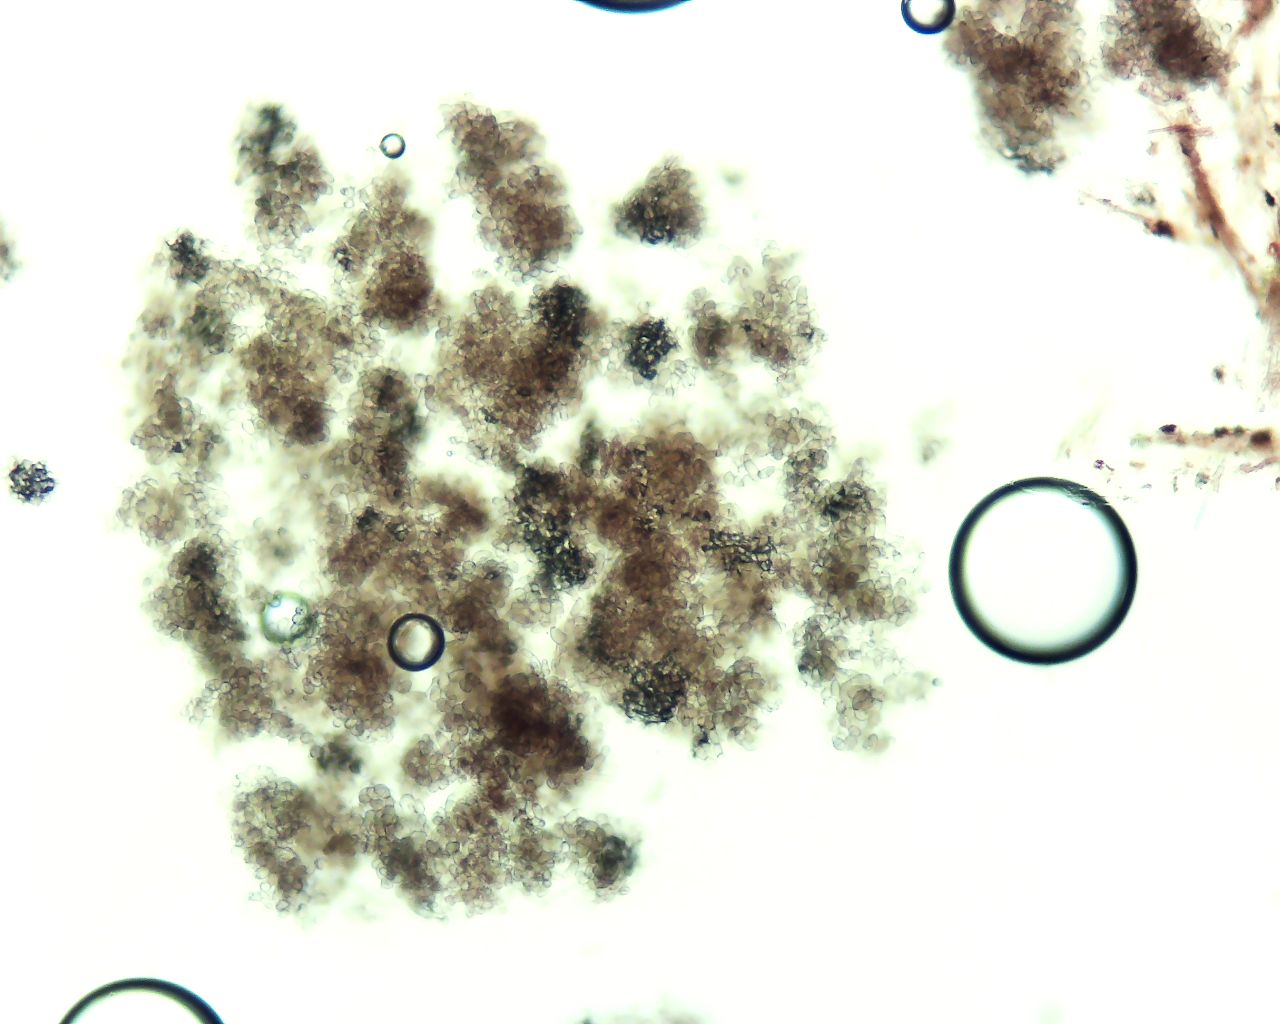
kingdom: Fungi
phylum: Ascomycota
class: Leotiomycetes
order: Helotiales
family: Hyaloscyphaceae
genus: Pseudaegerita
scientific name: Pseudaegerita
